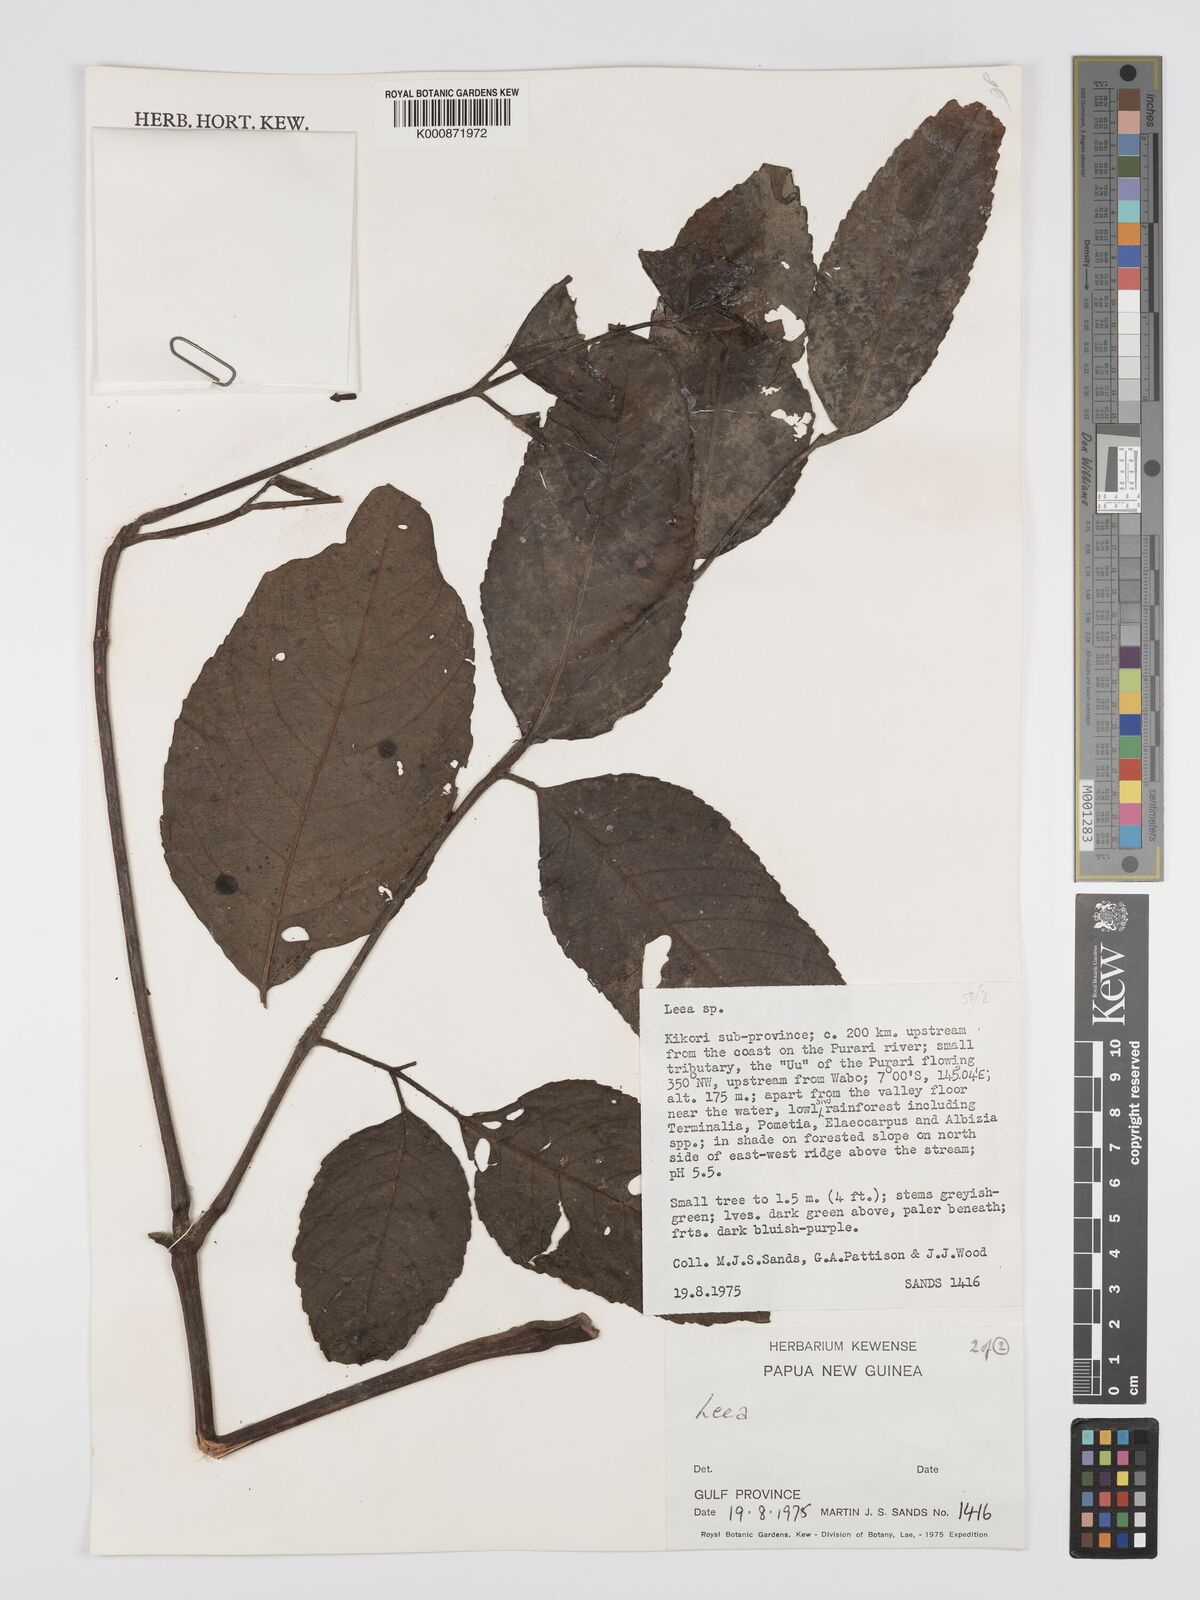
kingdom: Plantae
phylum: Tracheophyta
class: Magnoliopsida
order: Vitales
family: Vitaceae
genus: Leea
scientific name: Leea
